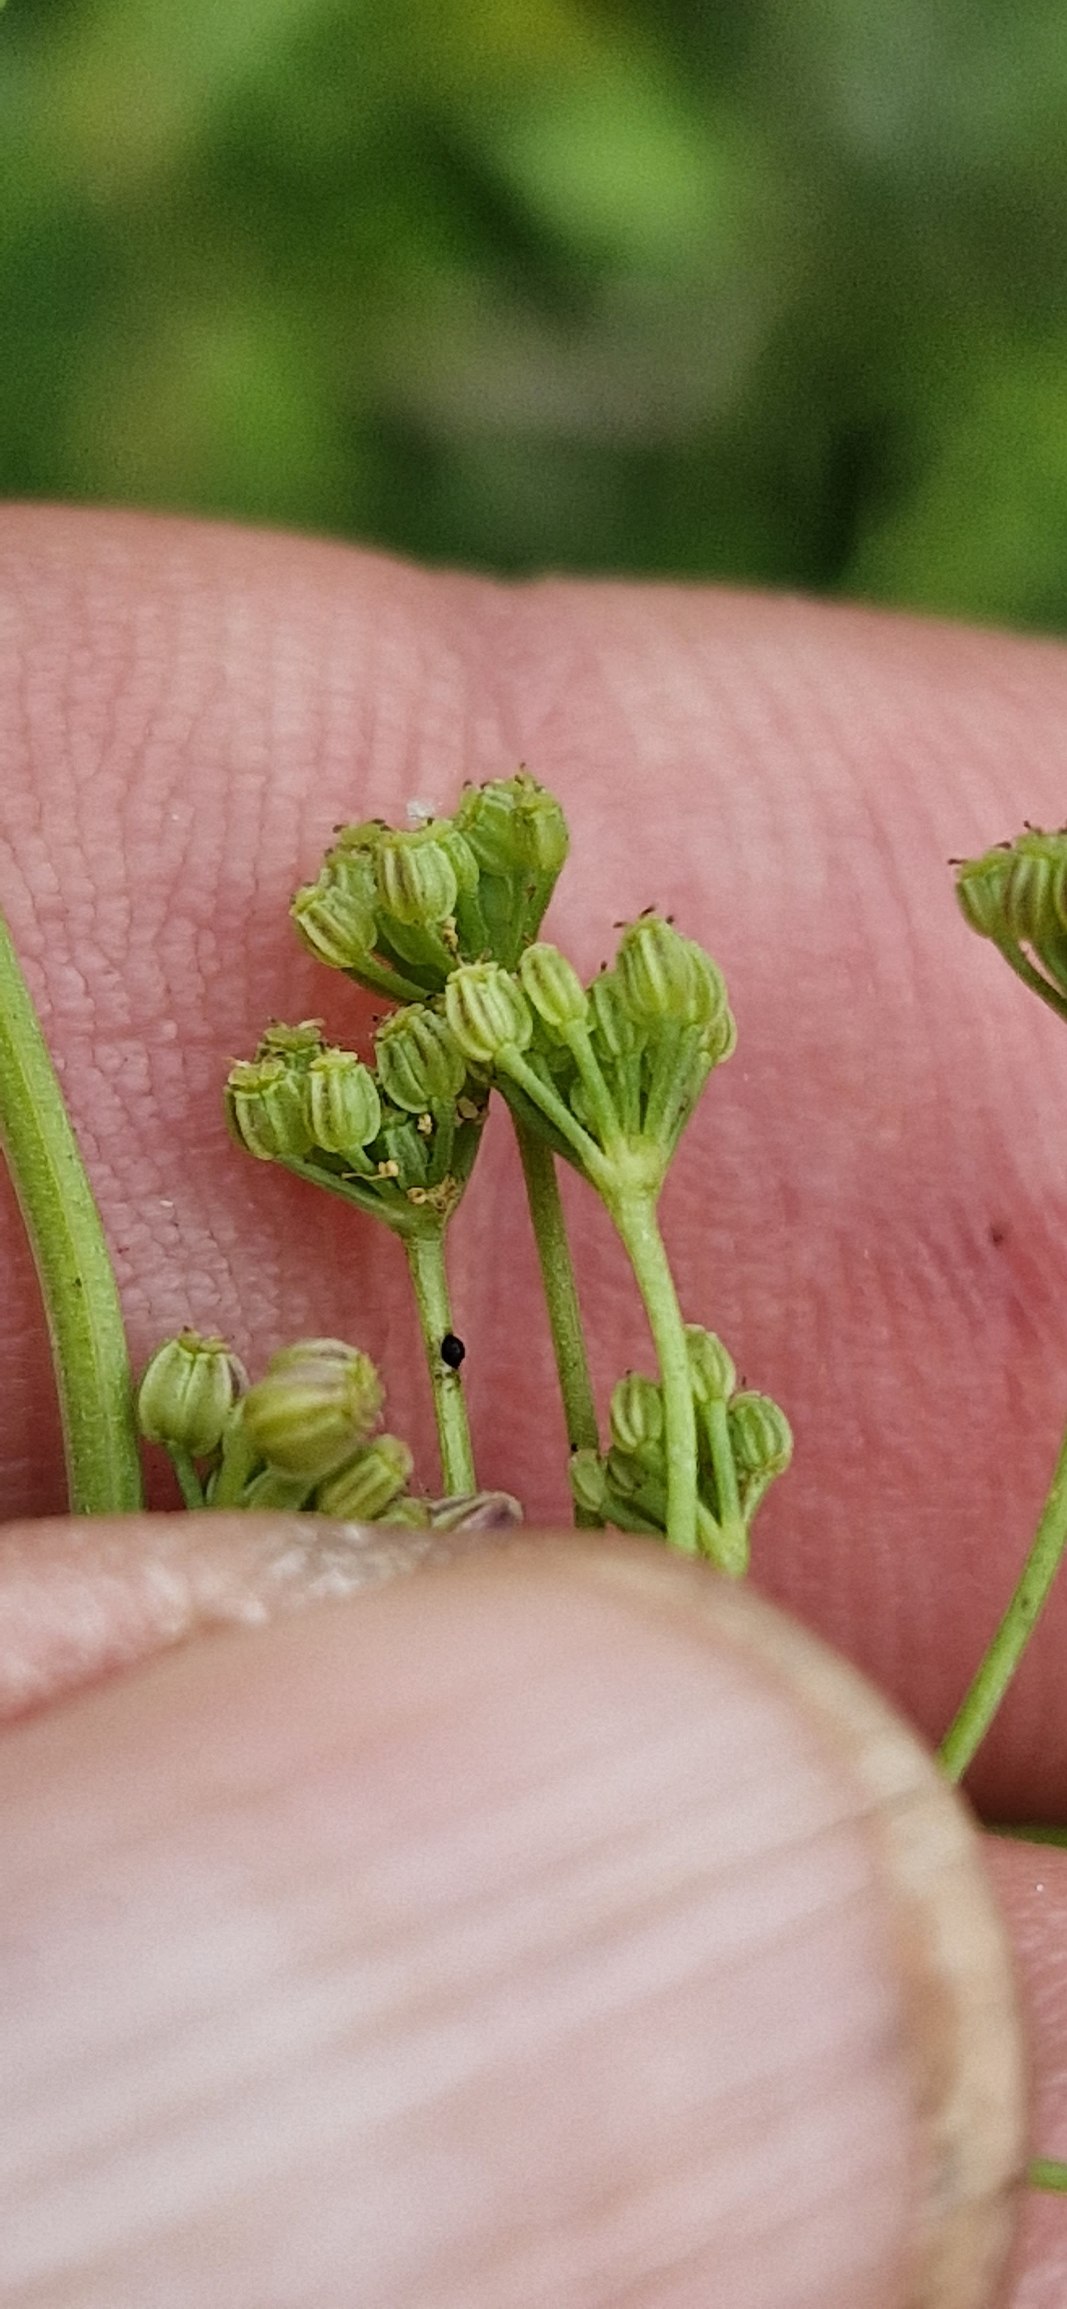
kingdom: Plantae
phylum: Tracheophyta
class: Magnoliopsida
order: Apiales
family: Apiaceae
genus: Apium
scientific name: Apium graveolens
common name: Vild selleri
